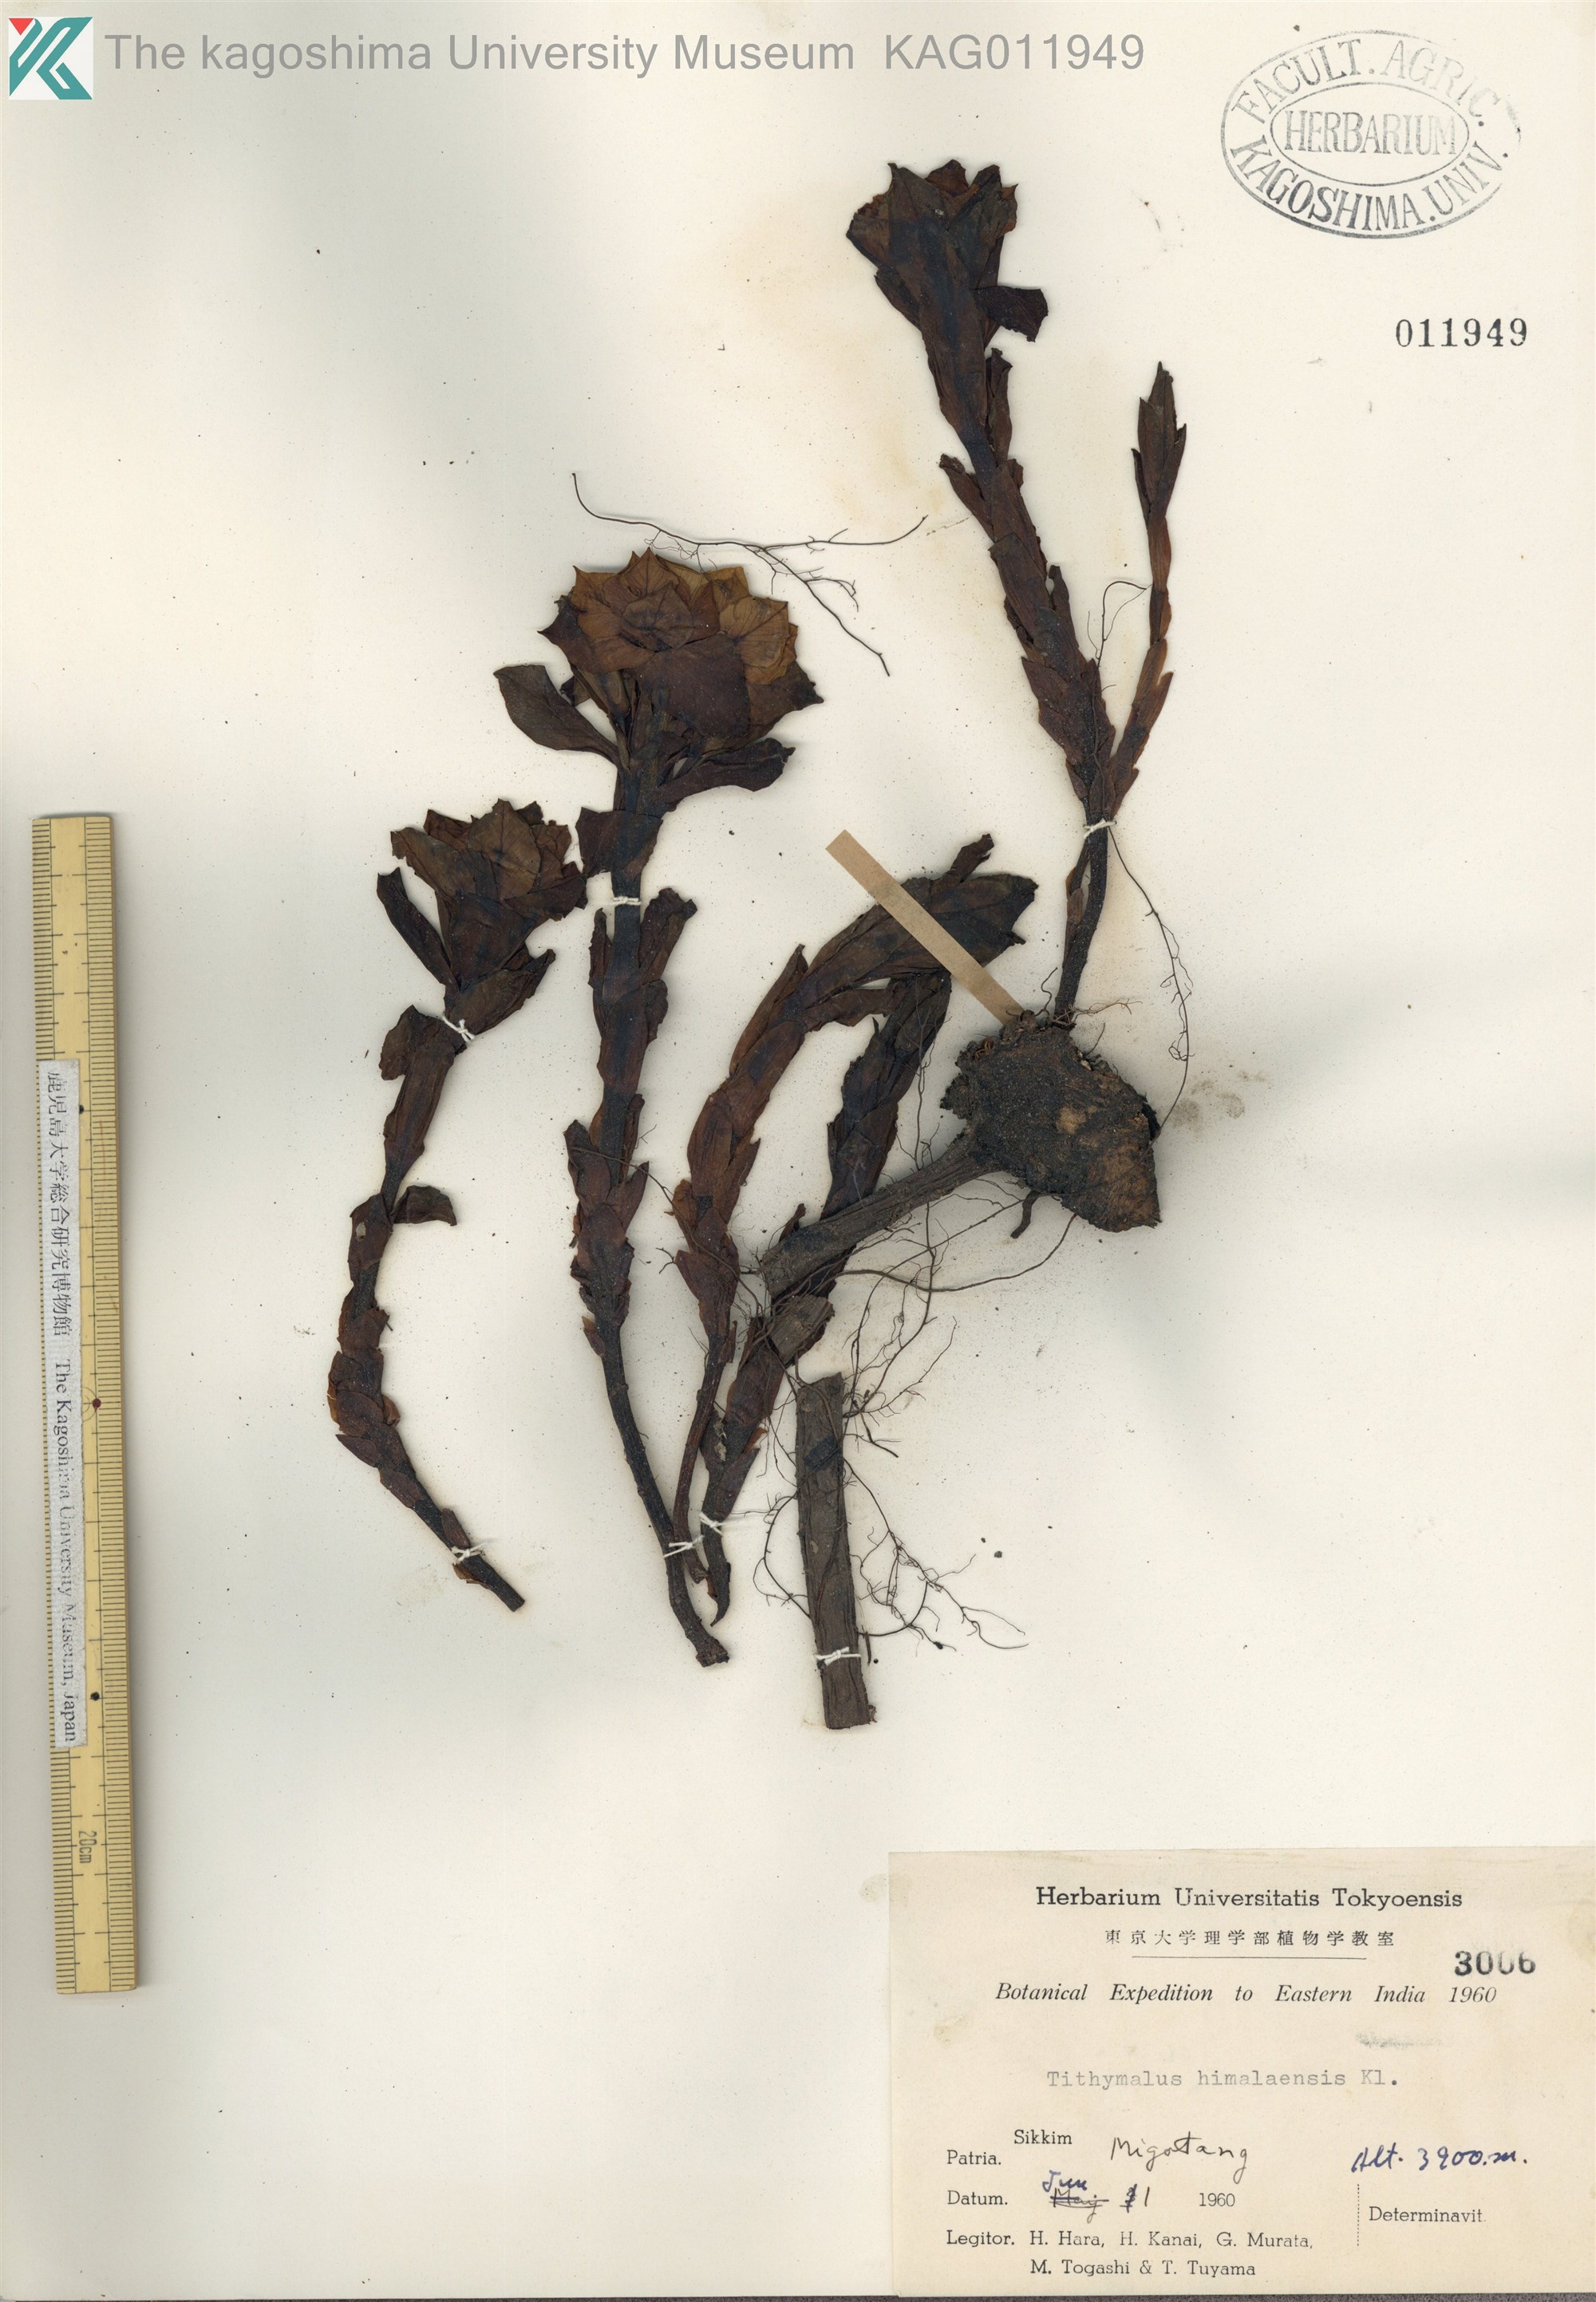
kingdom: Plantae
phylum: Tracheophyta
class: Magnoliopsida
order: Malpighiales
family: Euphorbiaceae
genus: Euphorbia
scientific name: Euphorbia stracheyi
